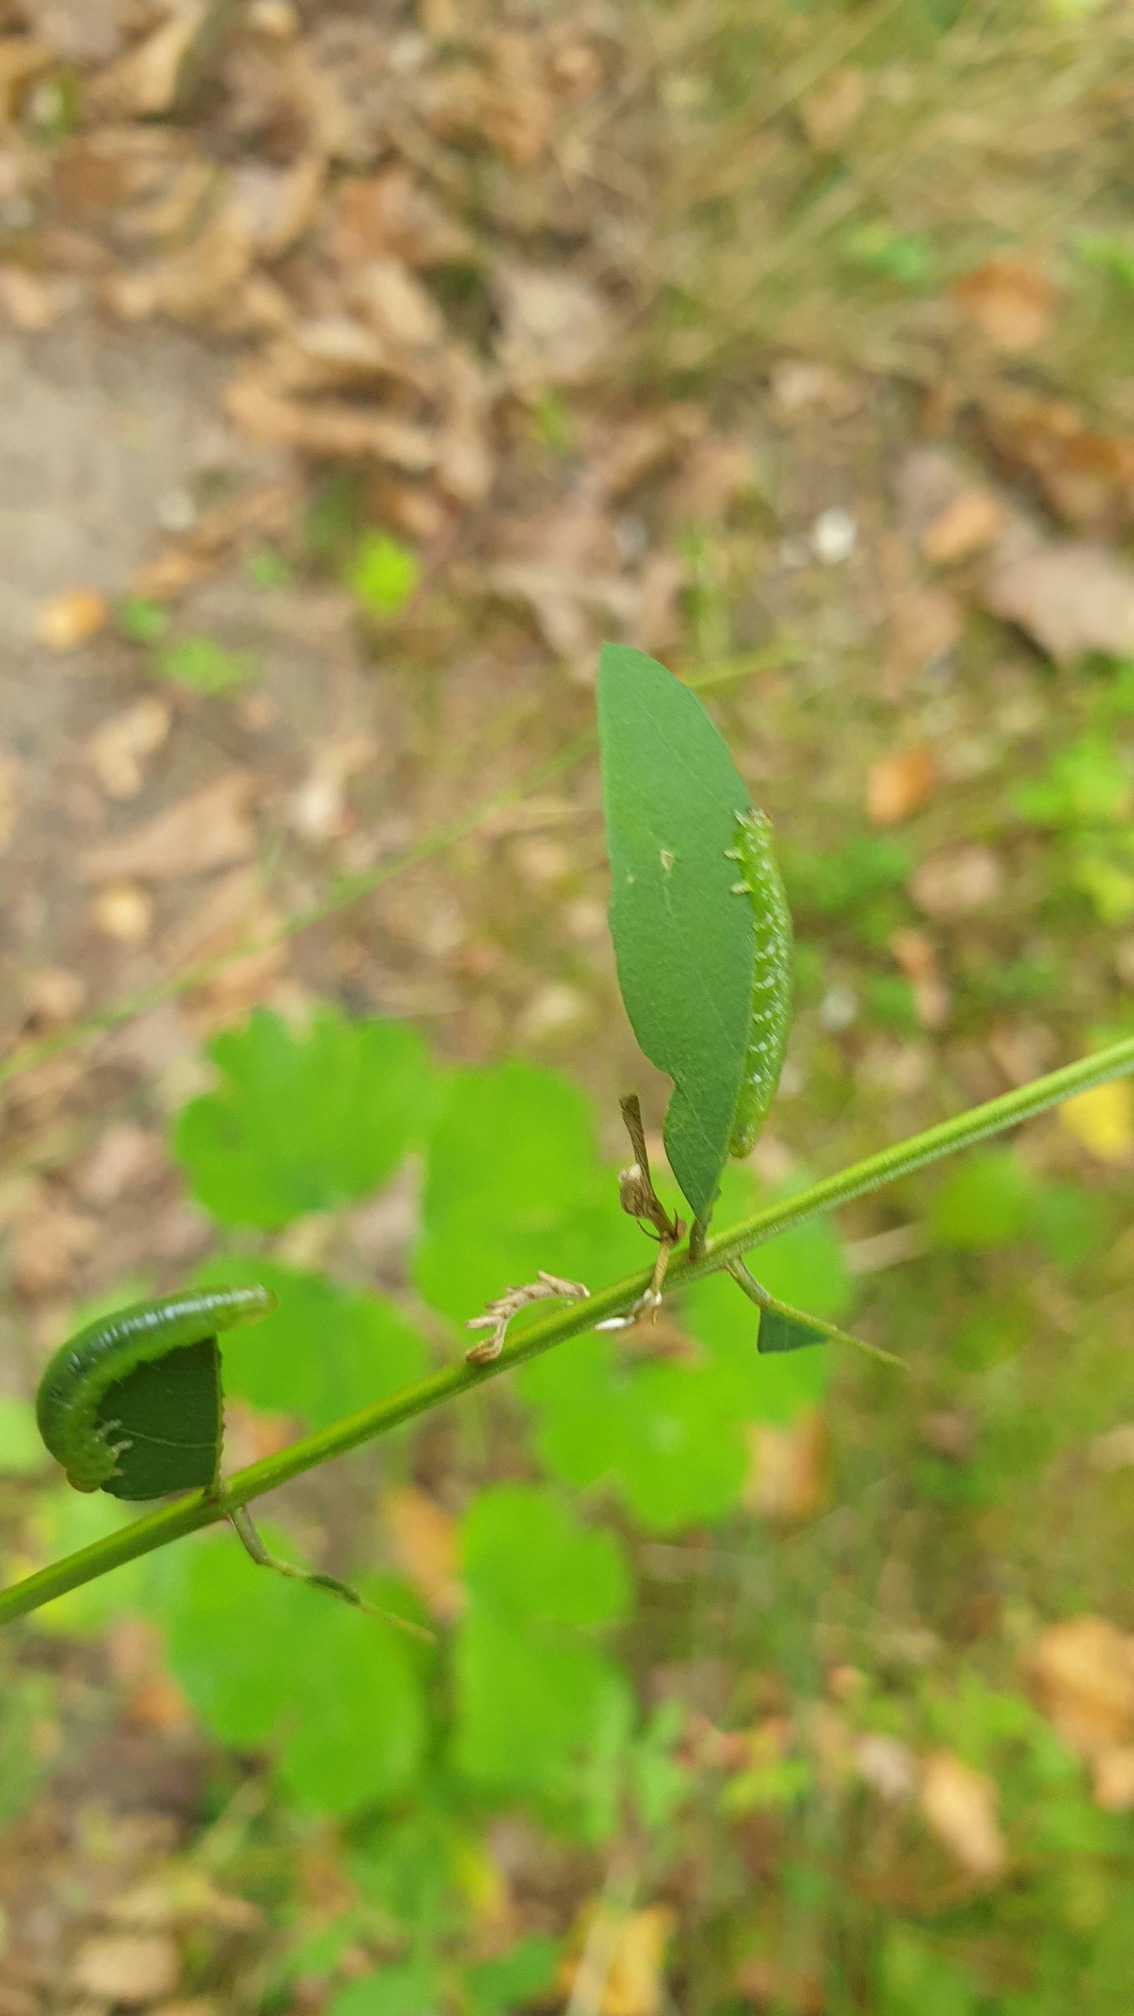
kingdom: Animalia
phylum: Arthropoda
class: Insecta
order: Hymenoptera
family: Tenthredinidae
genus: Euura
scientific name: Euura tibialis
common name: Robiniebladhveps
